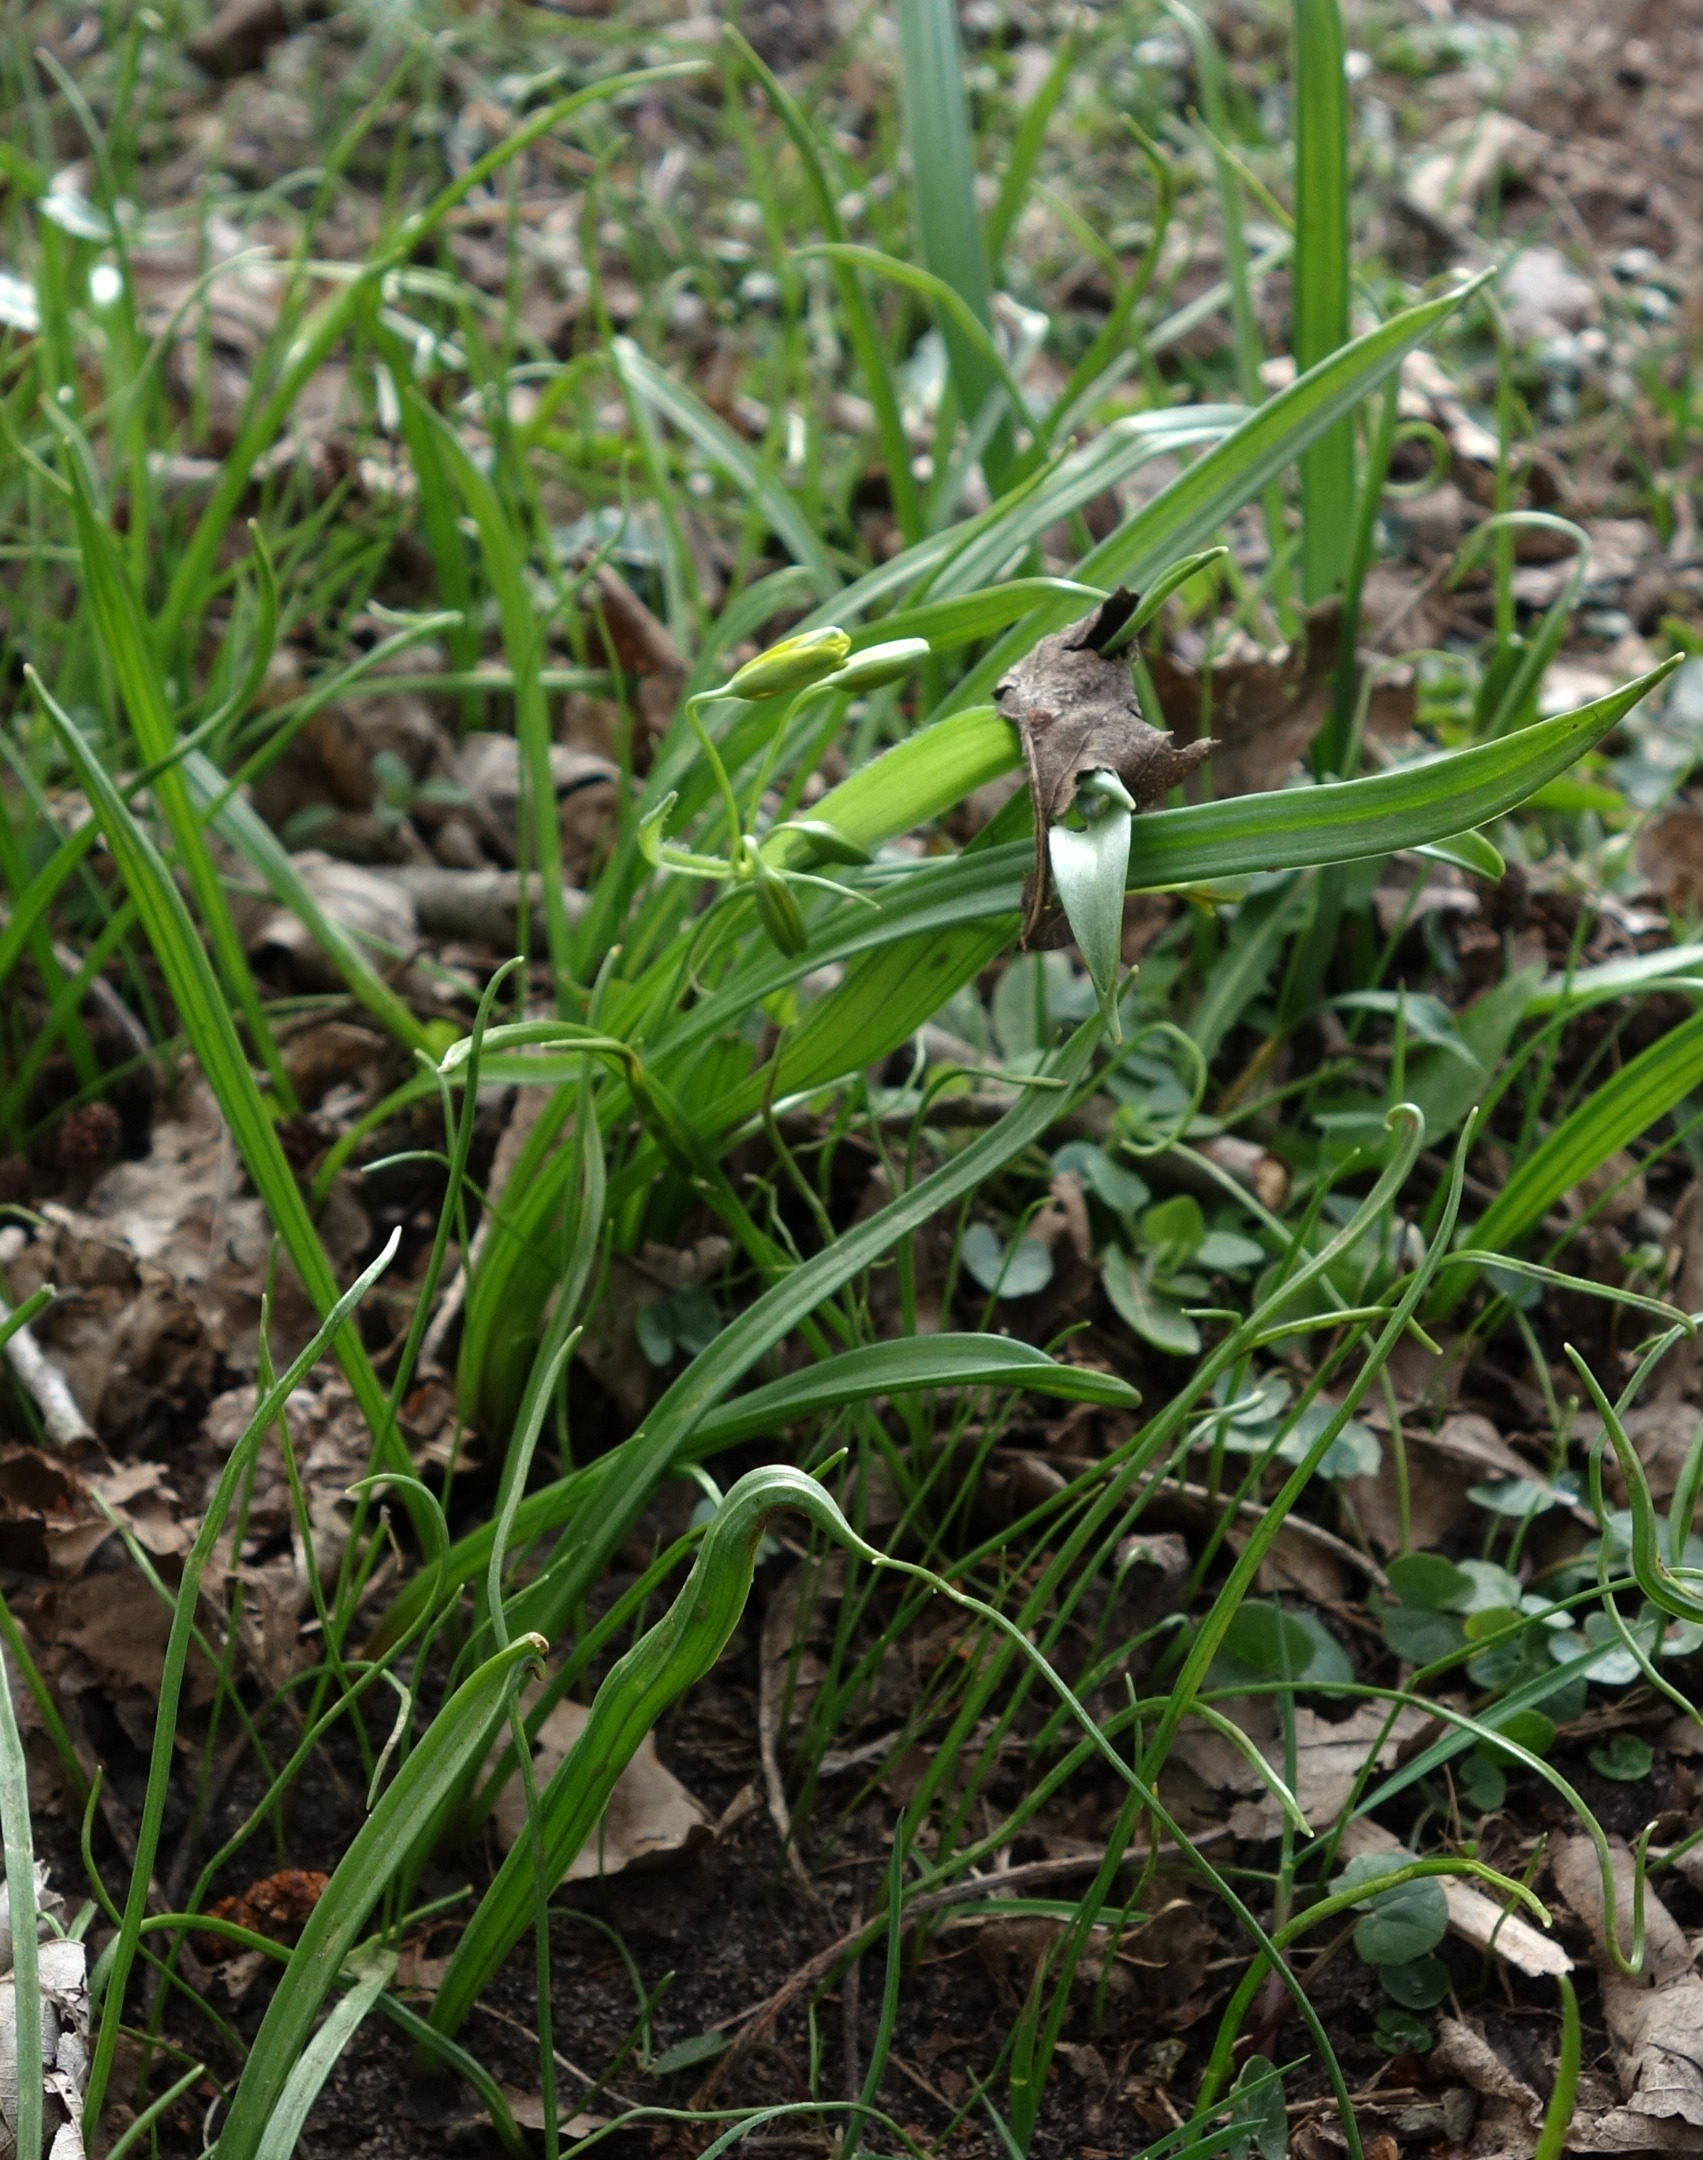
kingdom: Plantae
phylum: Tracheophyta
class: Liliopsida
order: Liliales
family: Liliaceae
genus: Gagea
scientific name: Gagea lutea
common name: Almindelig guldstjerne
